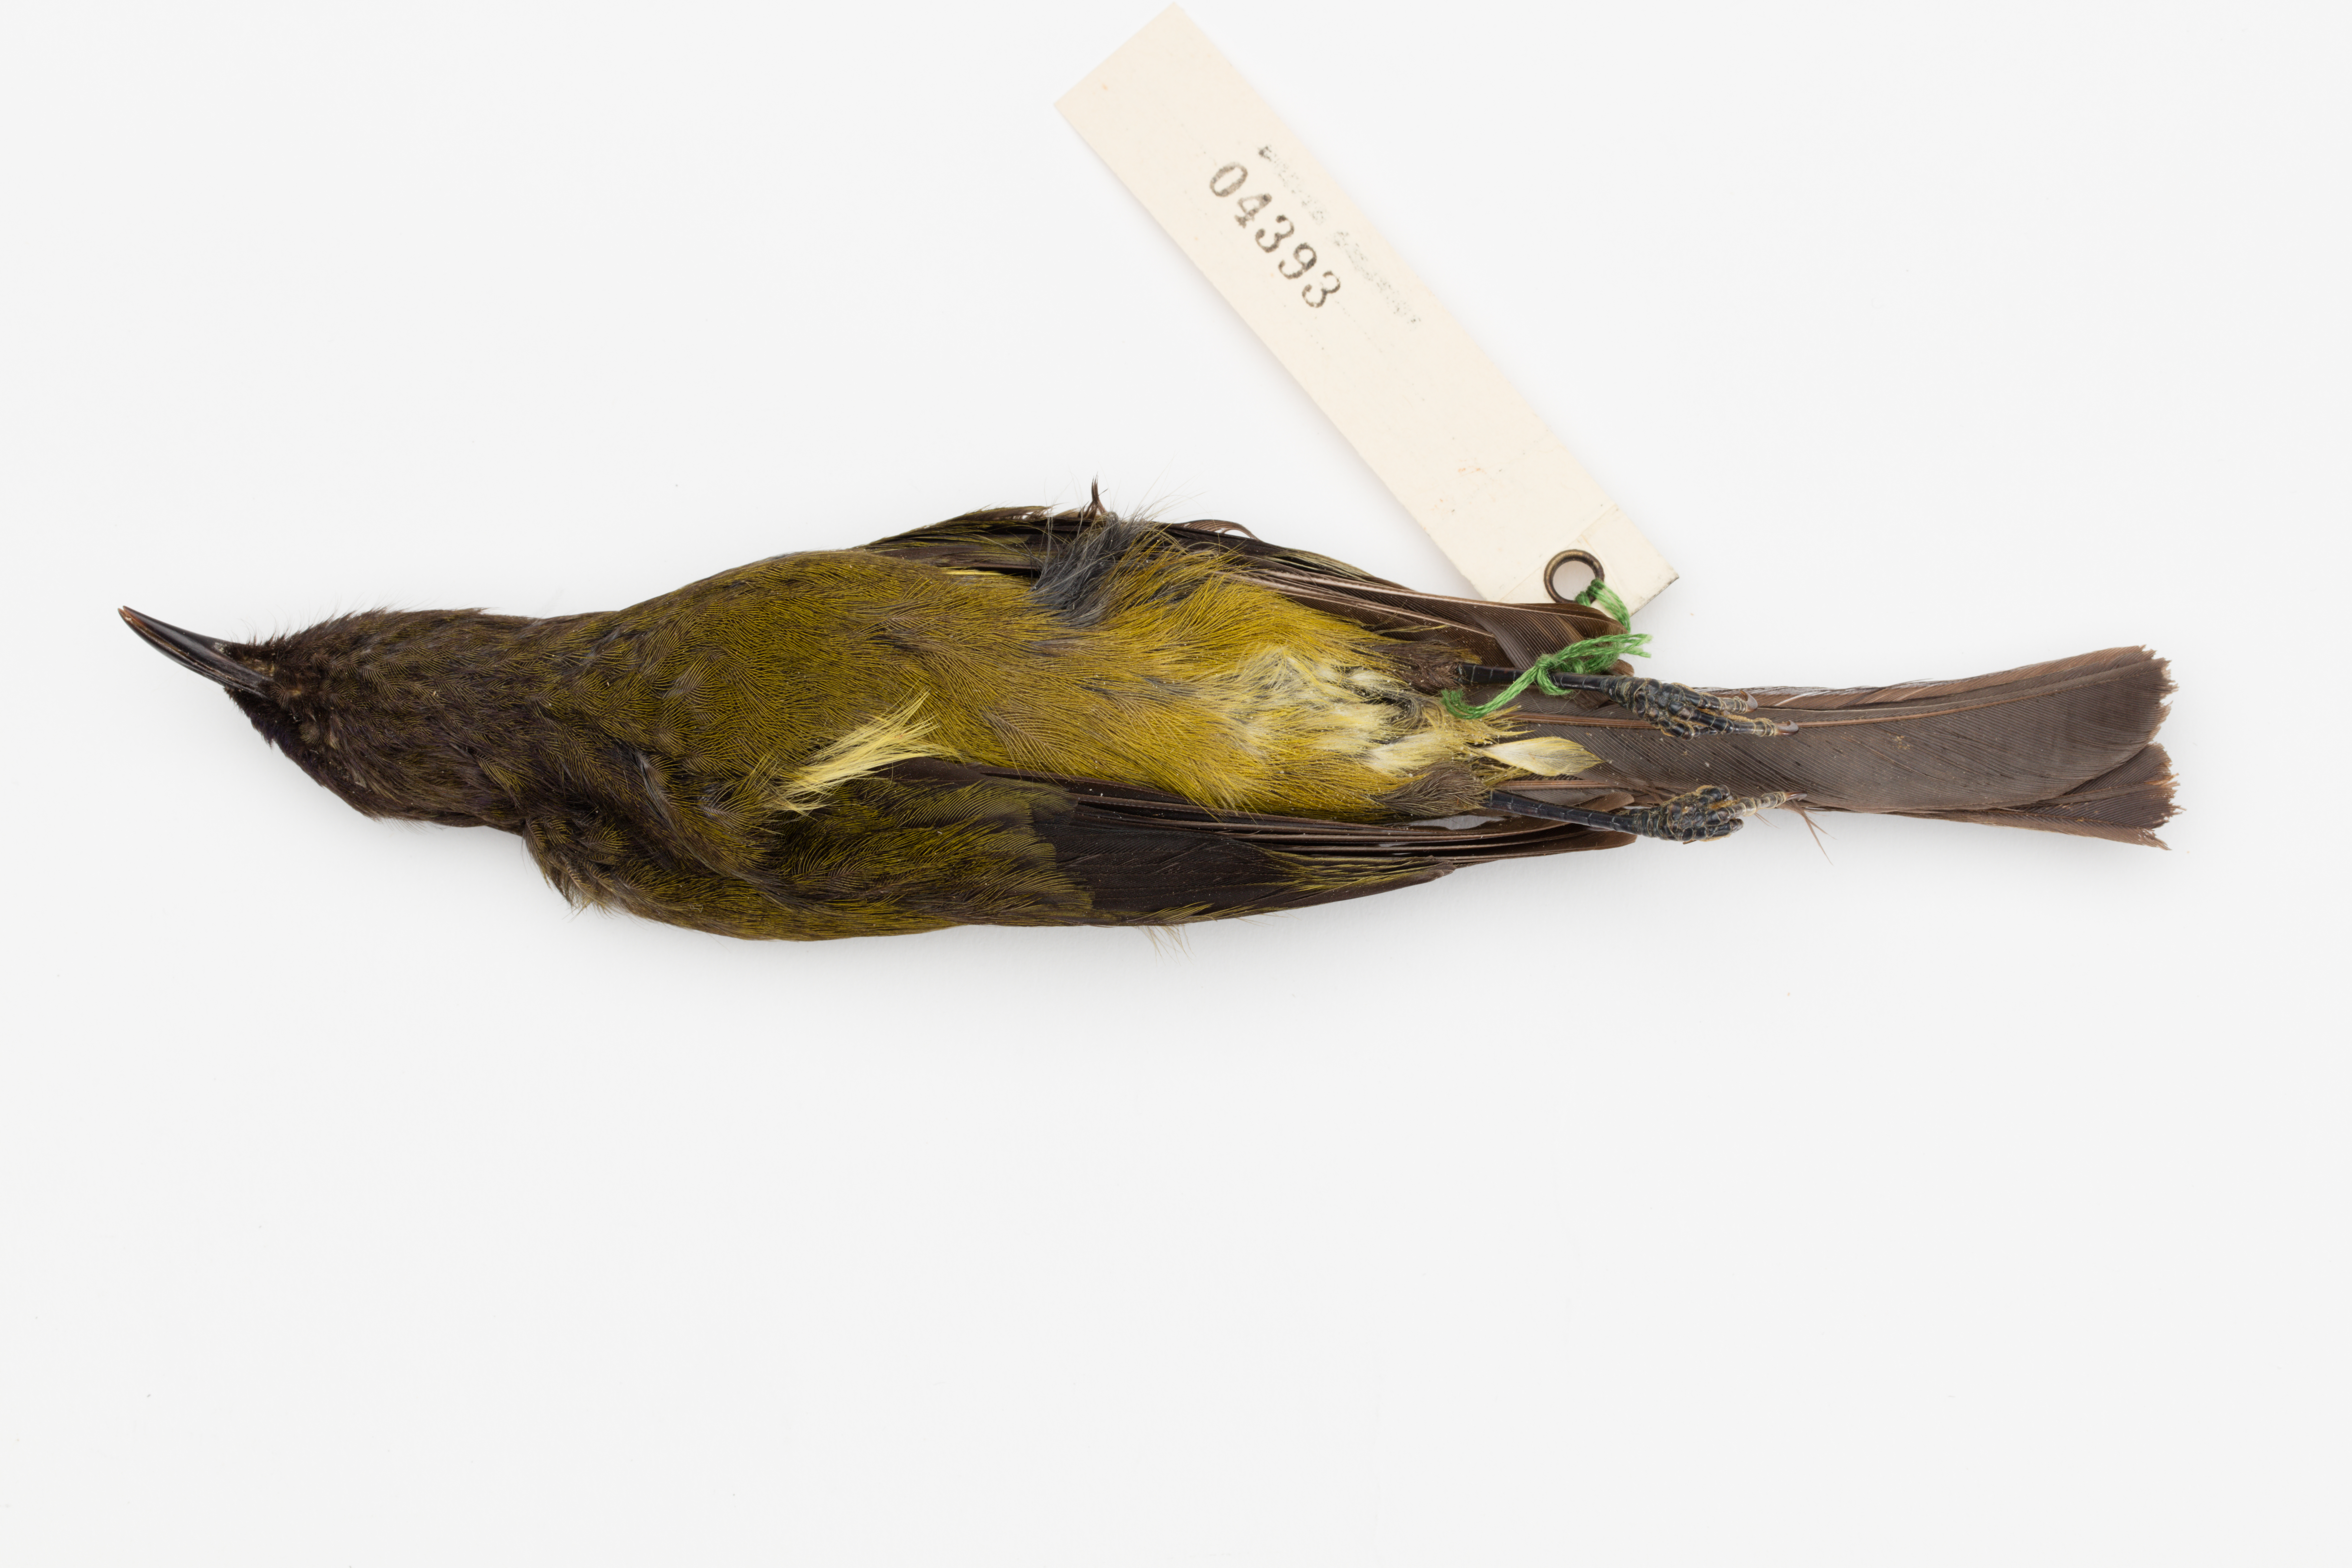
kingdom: Animalia
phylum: Chordata
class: Aves
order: Passeriformes
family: Meliphagidae
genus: Anthornis
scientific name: Anthornis melanura
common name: New zealand bellbird
